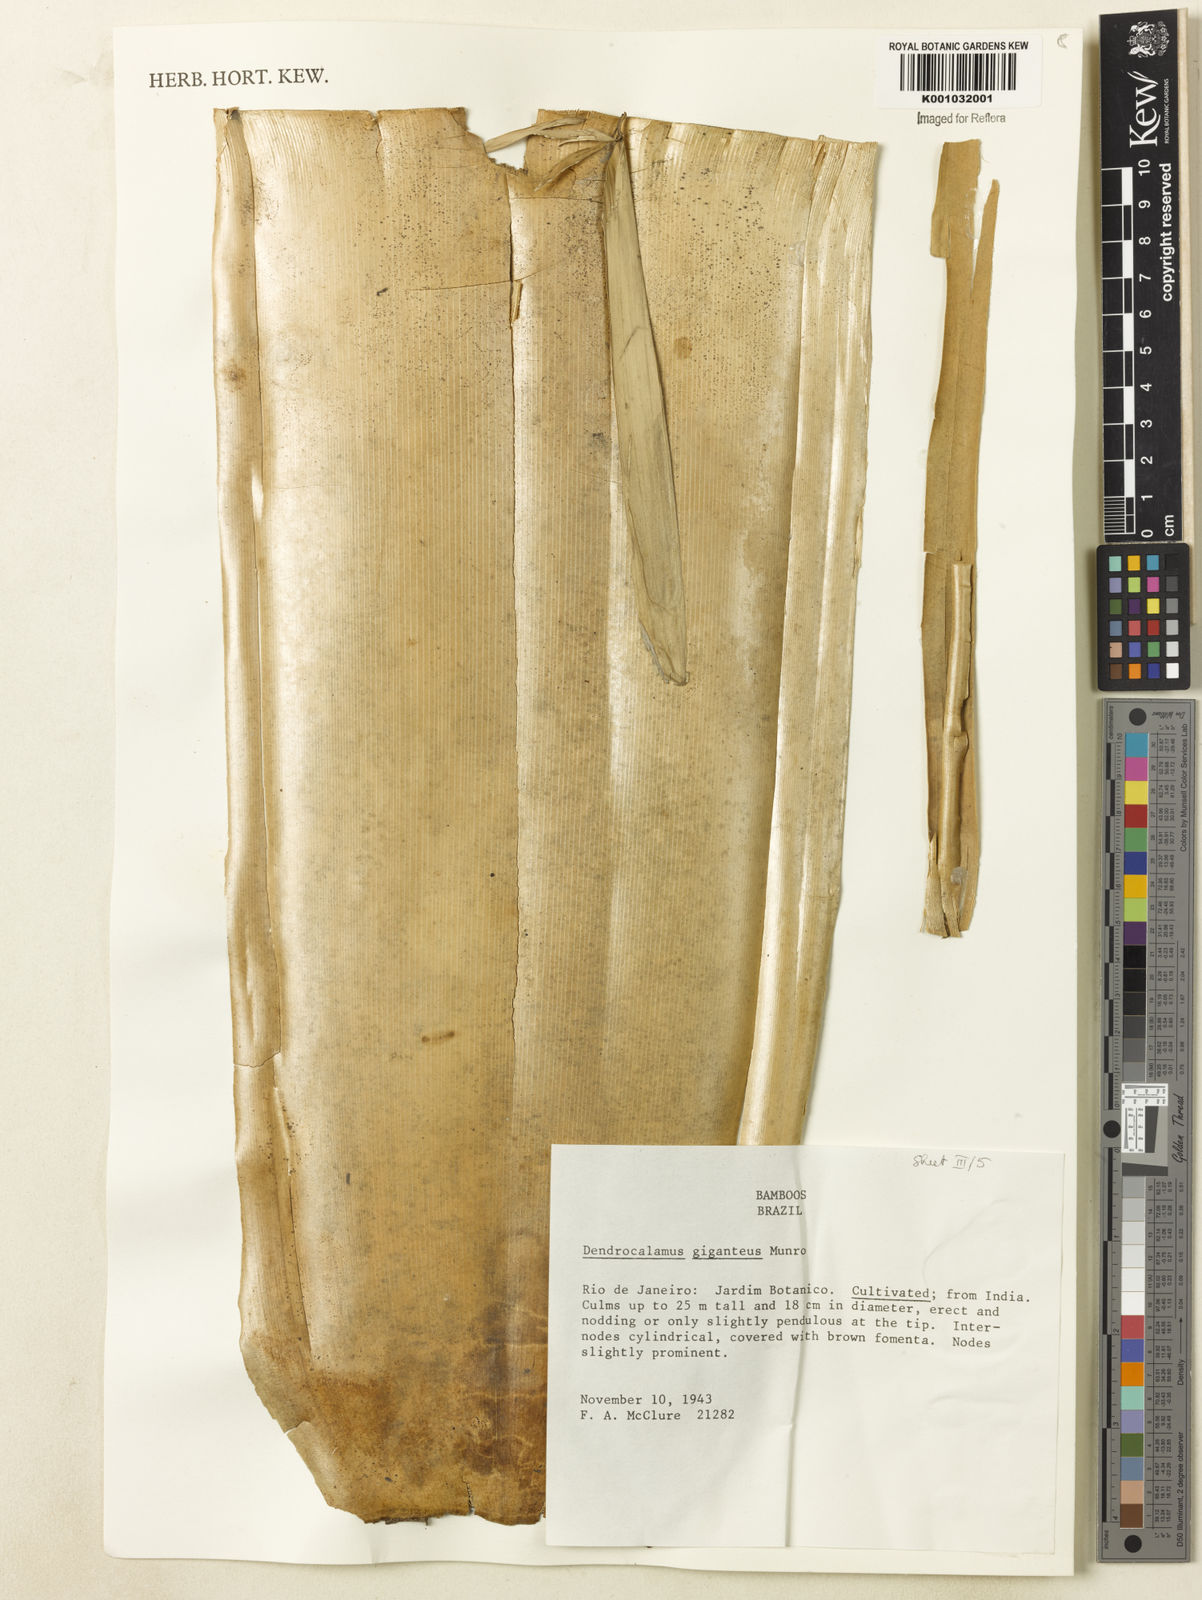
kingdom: Plantae
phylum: Tracheophyta
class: Liliopsida
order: Poales
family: Poaceae
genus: Dendrocalamus
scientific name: Dendrocalamus giganteus
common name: Giant bamboo
